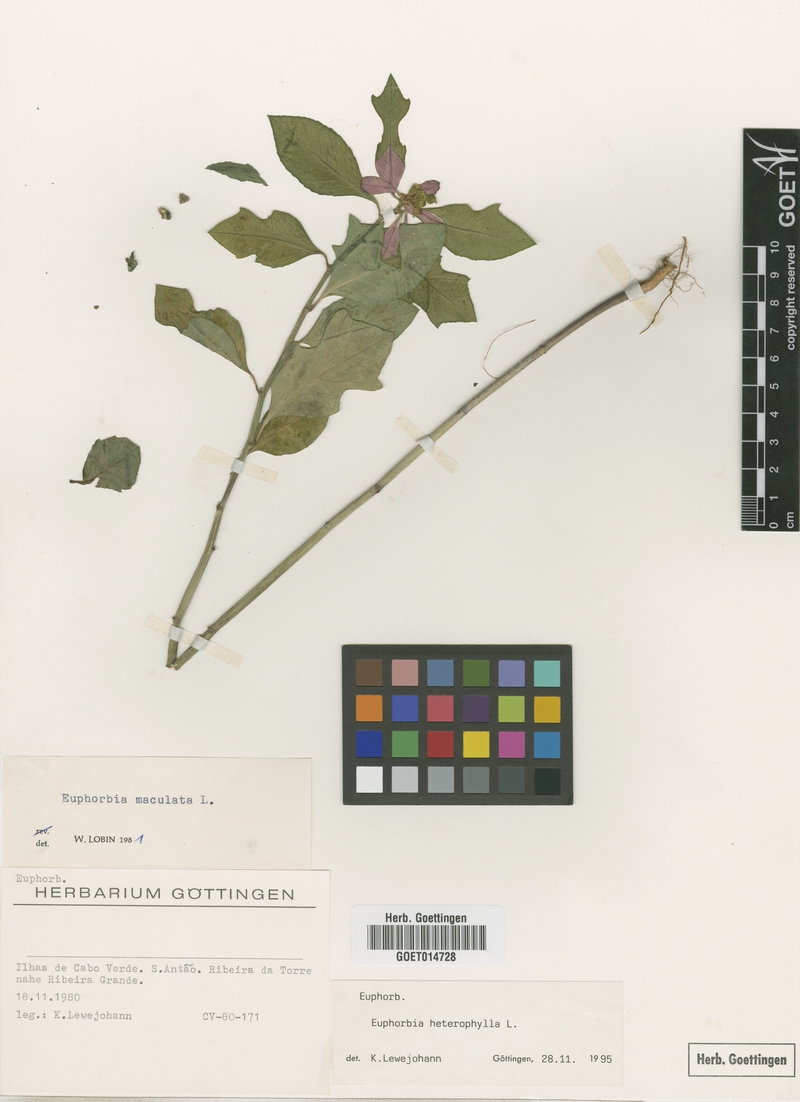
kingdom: Plantae
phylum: Tracheophyta
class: Magnoliopsida
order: Malpighiales
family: Euphorbiaceae
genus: Euphorbia
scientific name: Euphorbia heterophylla
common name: Mexican fireplant
